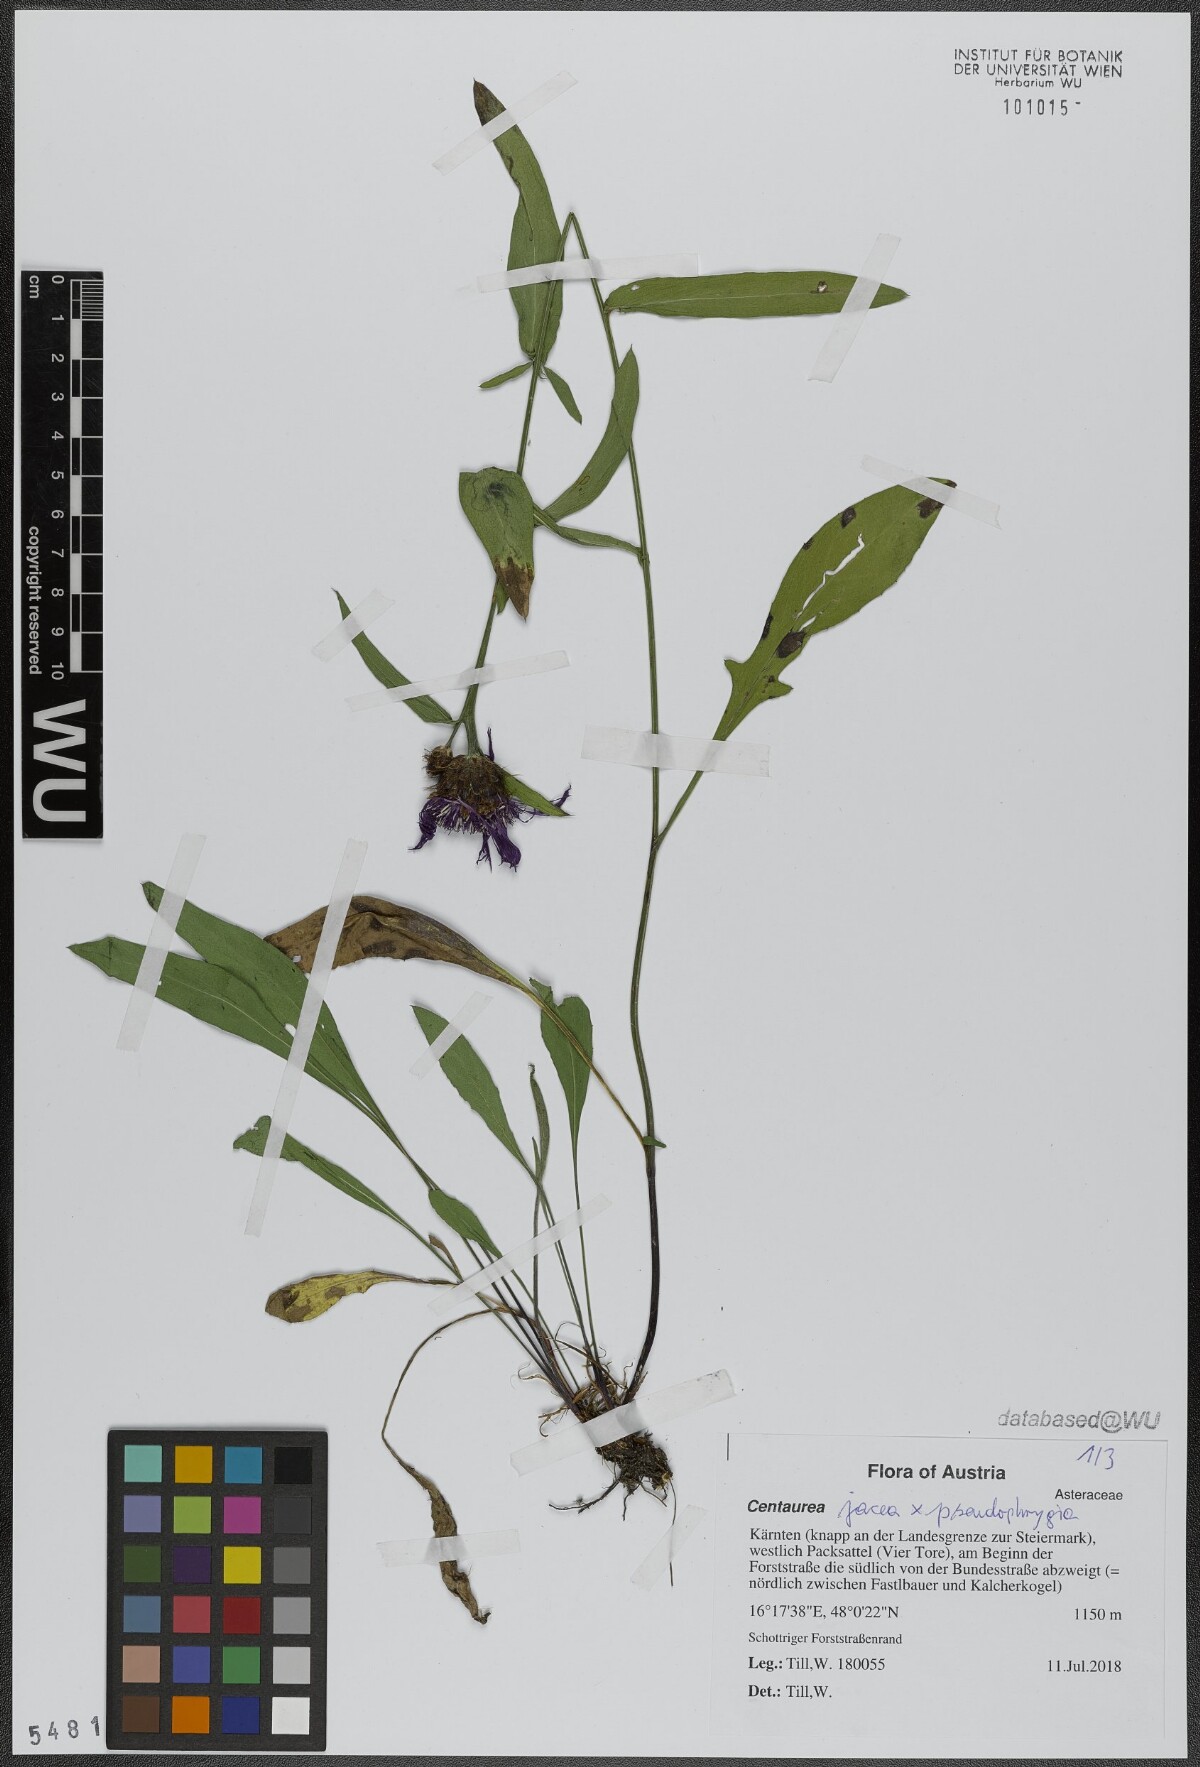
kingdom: Plantae
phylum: Tracheophyta
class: Magnoliopsida
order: Asterales
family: Asteraceae
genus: Centaurea
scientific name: Centaurea
